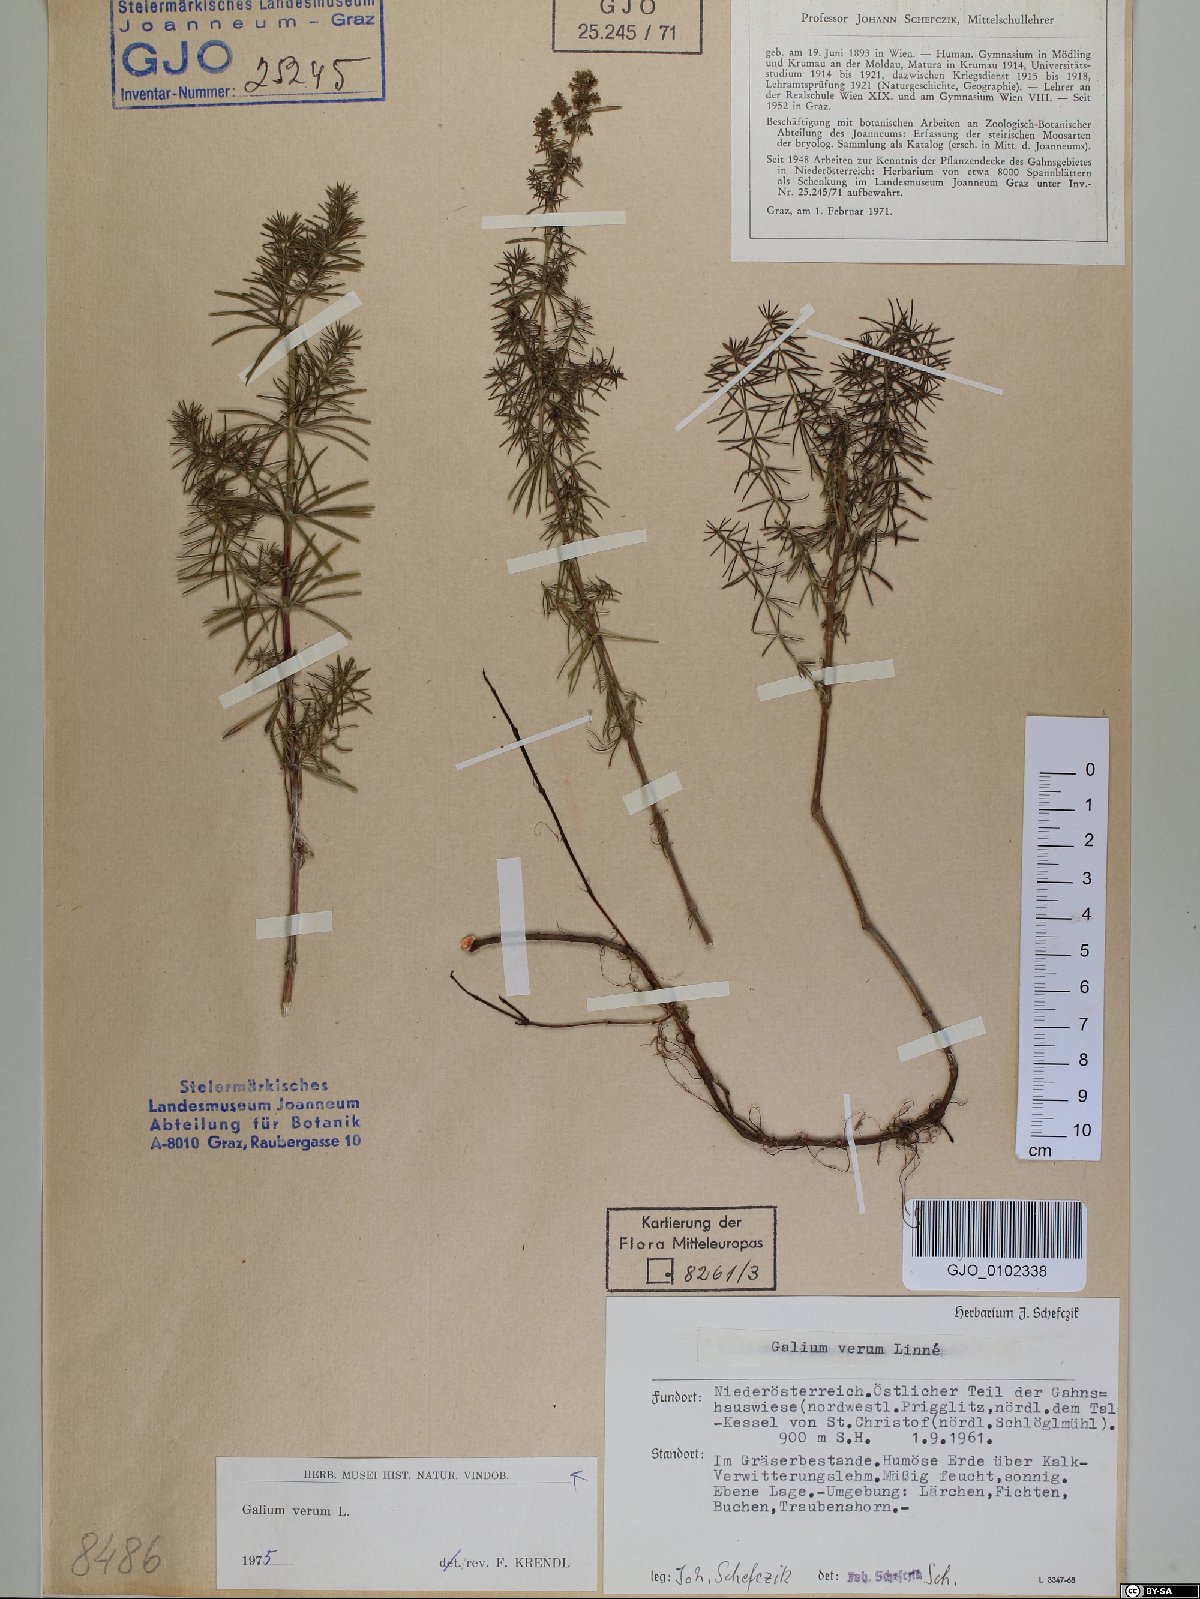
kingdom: Plantae
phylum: Tracheophyta
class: Magnoliopsida
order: Gentianales
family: Rubiaceae
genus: Galium
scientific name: Galium verum
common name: Lady's bedstraw
